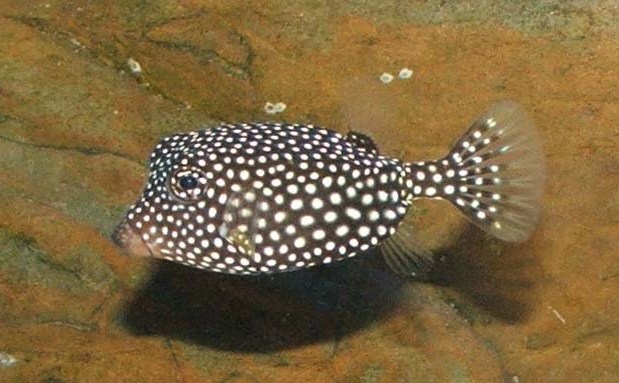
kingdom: Animalia
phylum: Chordata
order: Tetraodontiformes
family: Ostraciidae
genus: Ostracion
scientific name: Ostracion meleagris
